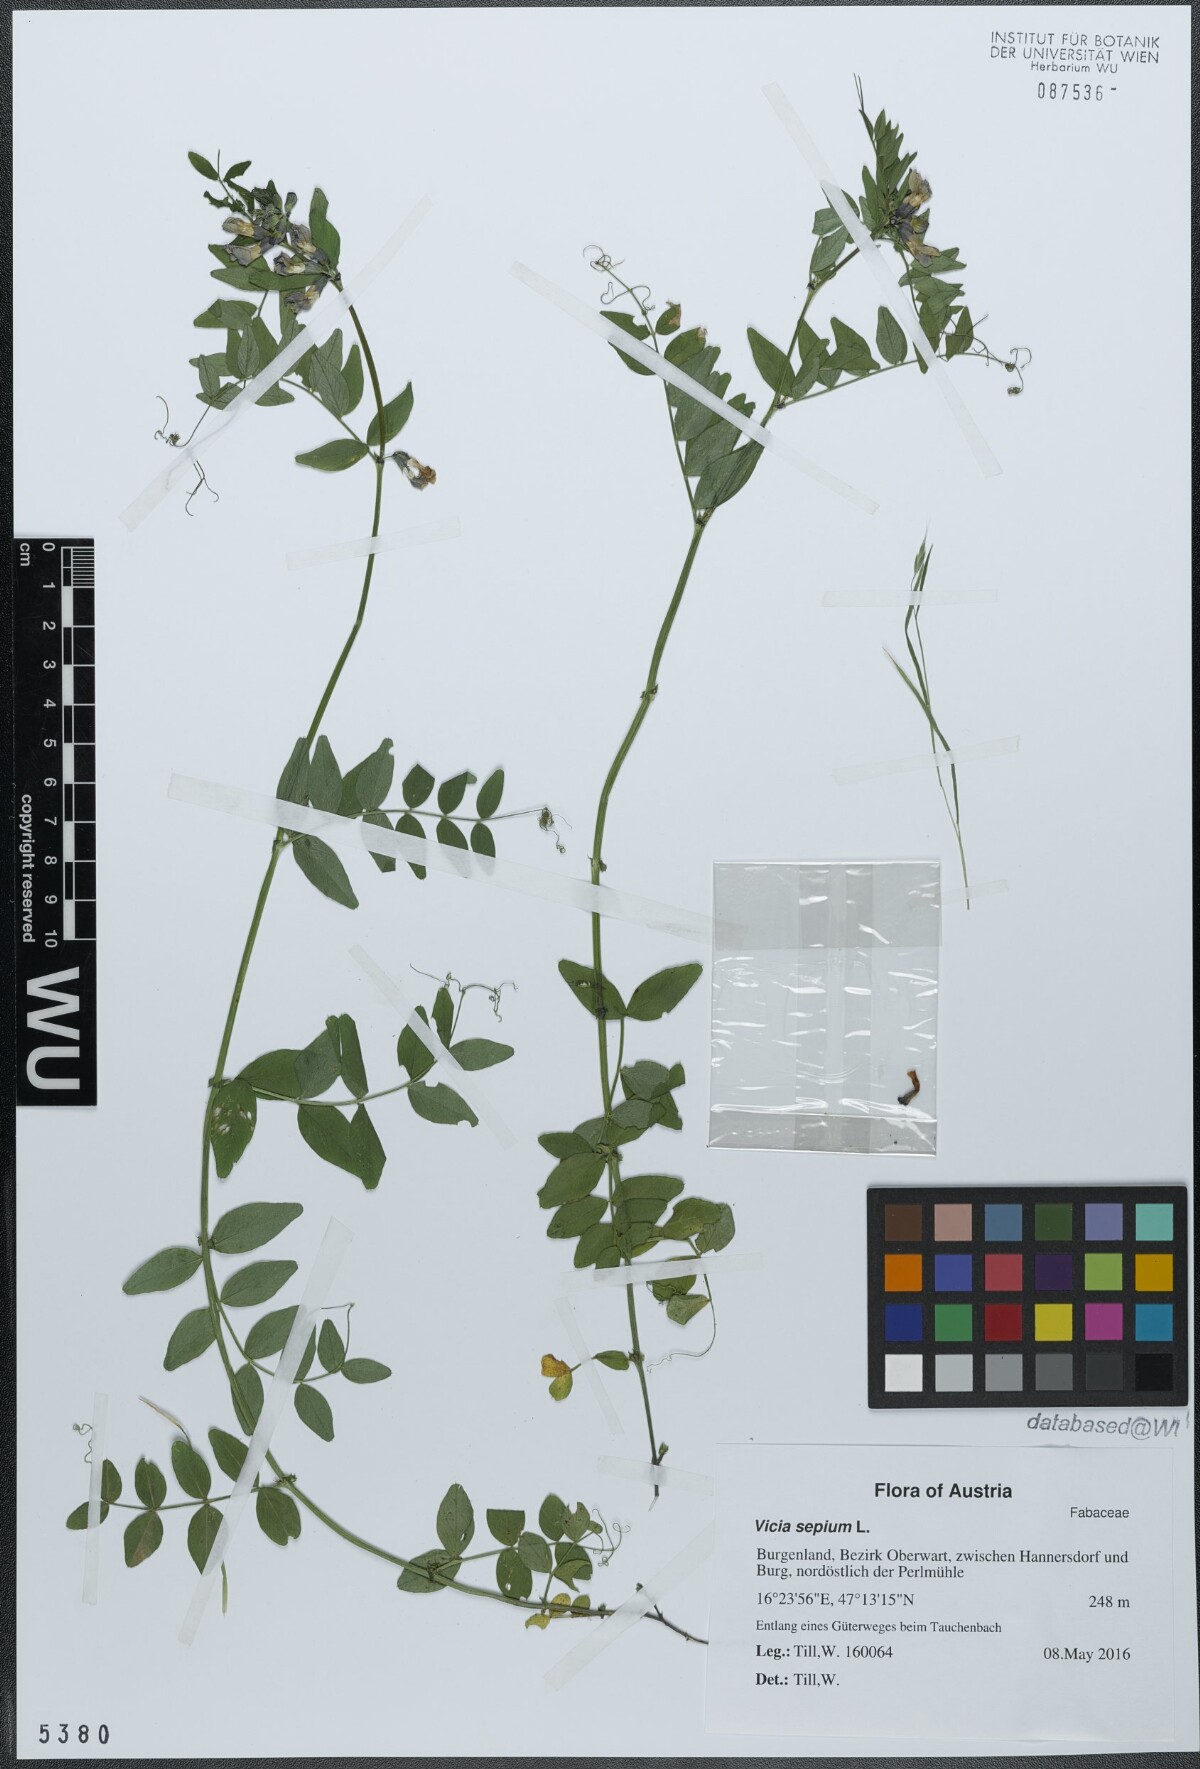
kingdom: Plantae
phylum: Tracheophyta
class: Magnoliopsida
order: Fabales
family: Fabaceae
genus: Vicia
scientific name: Vicia sepium
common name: Bush vetch
